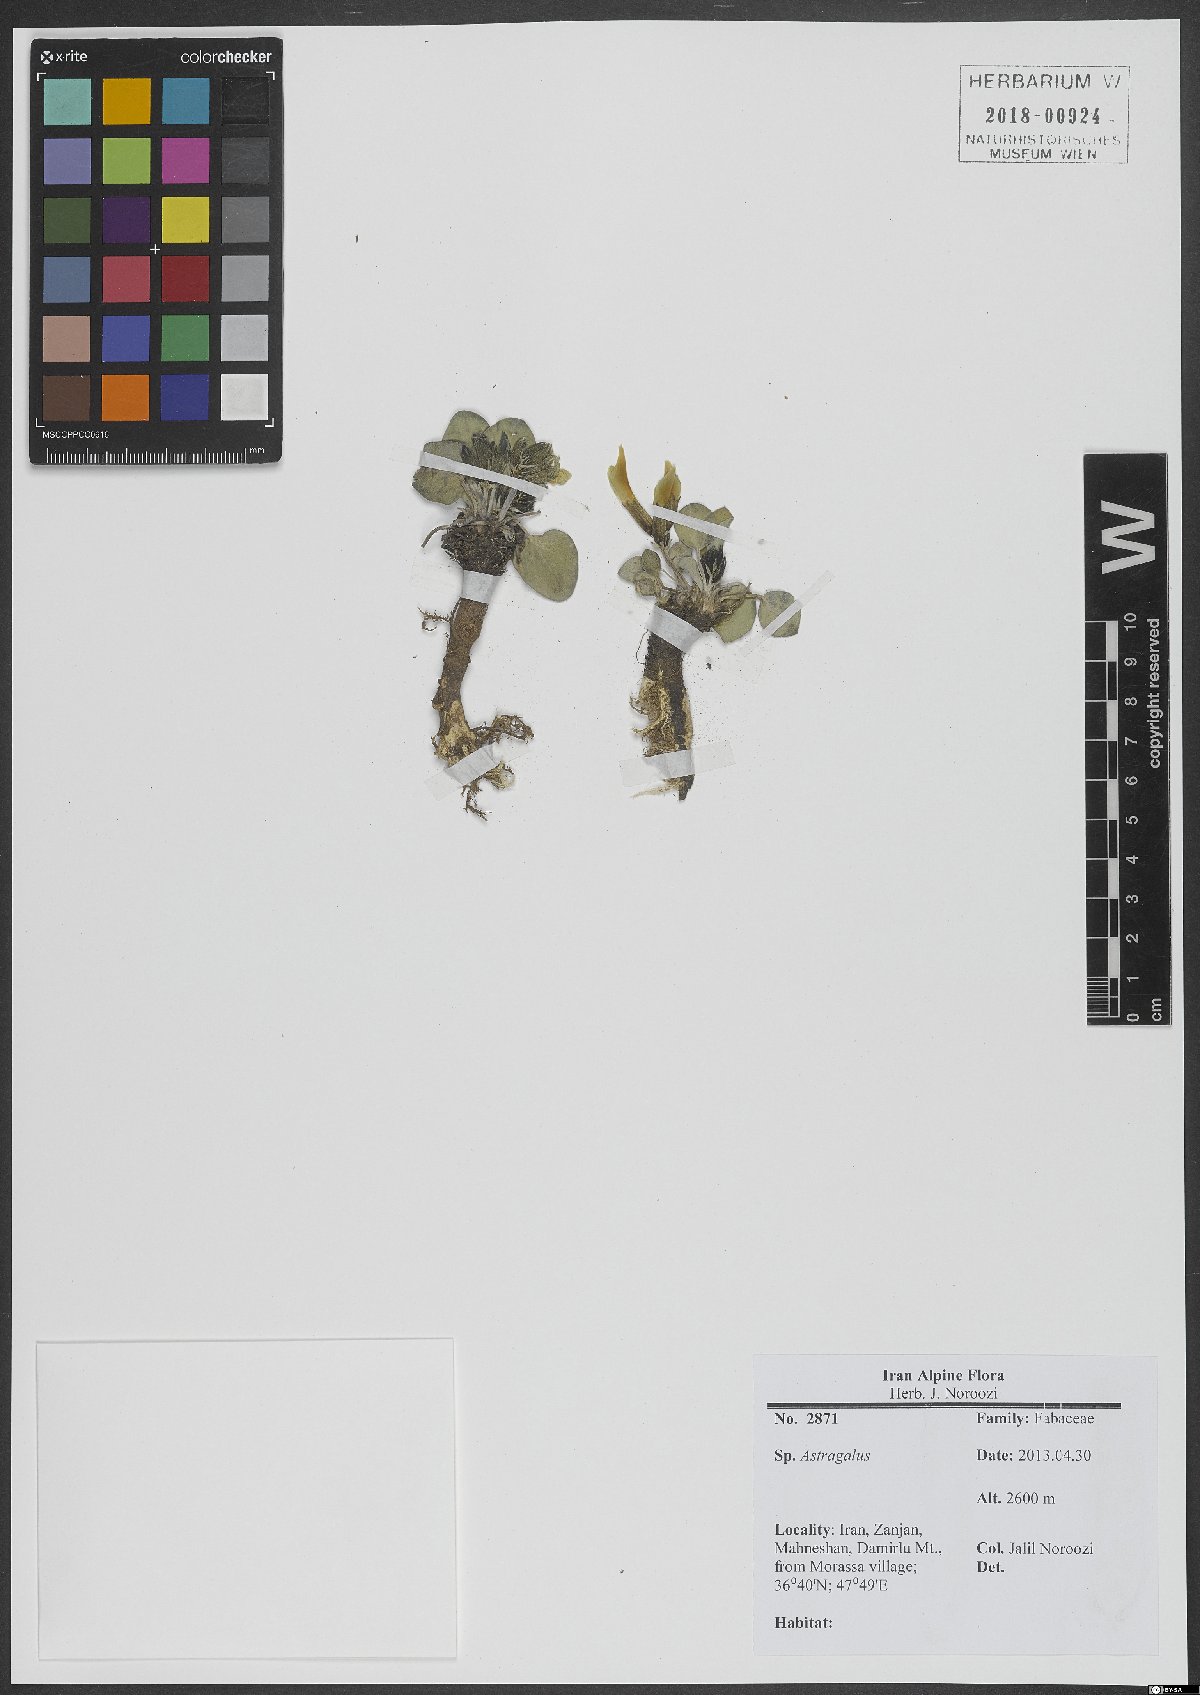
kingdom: Plantae
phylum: Tracheophyta
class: Magnoliopsida
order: Fabales
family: Fabaceae
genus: Astragalus
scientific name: Astragalus
